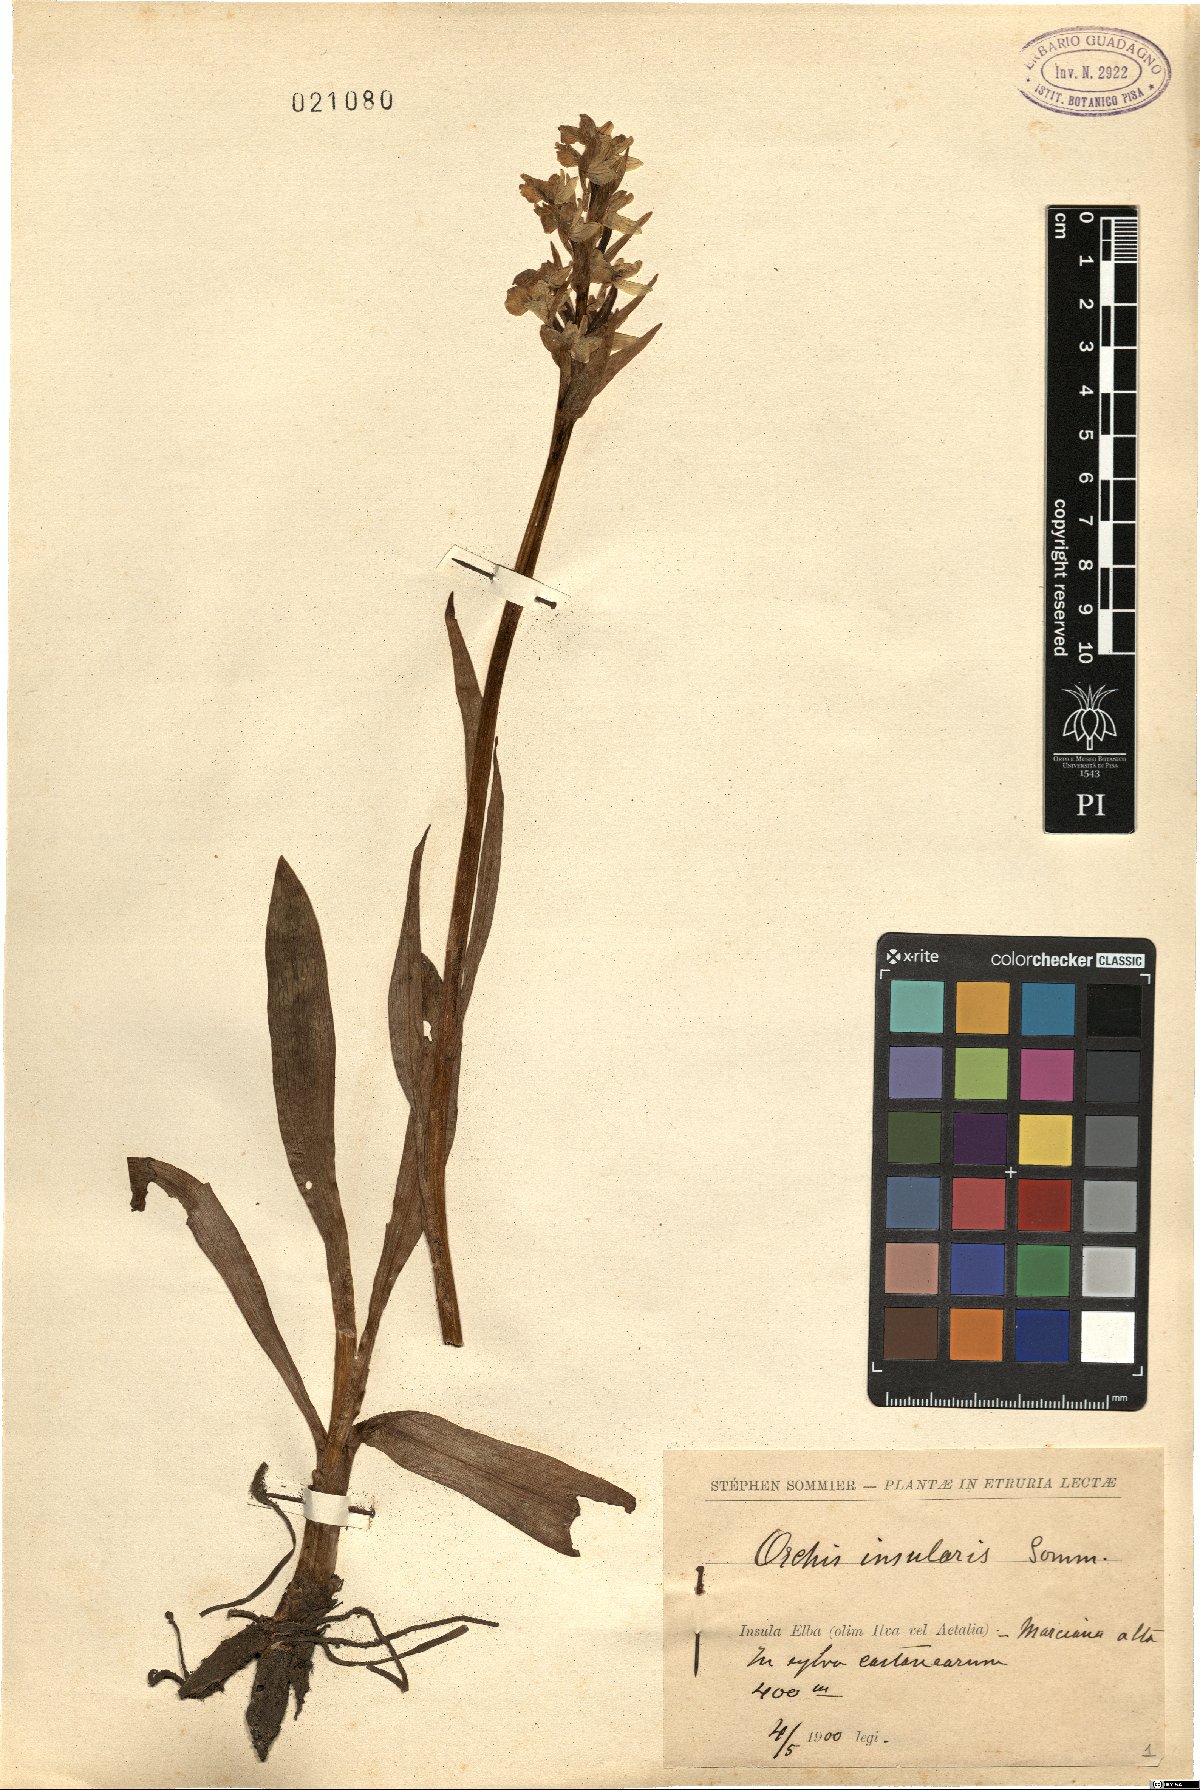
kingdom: Plantae
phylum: Tracheophyta
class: Liliopsida
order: Asparagales
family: Orchidaceae
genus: Dactylorhiza
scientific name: Dactylorhiza insularis
